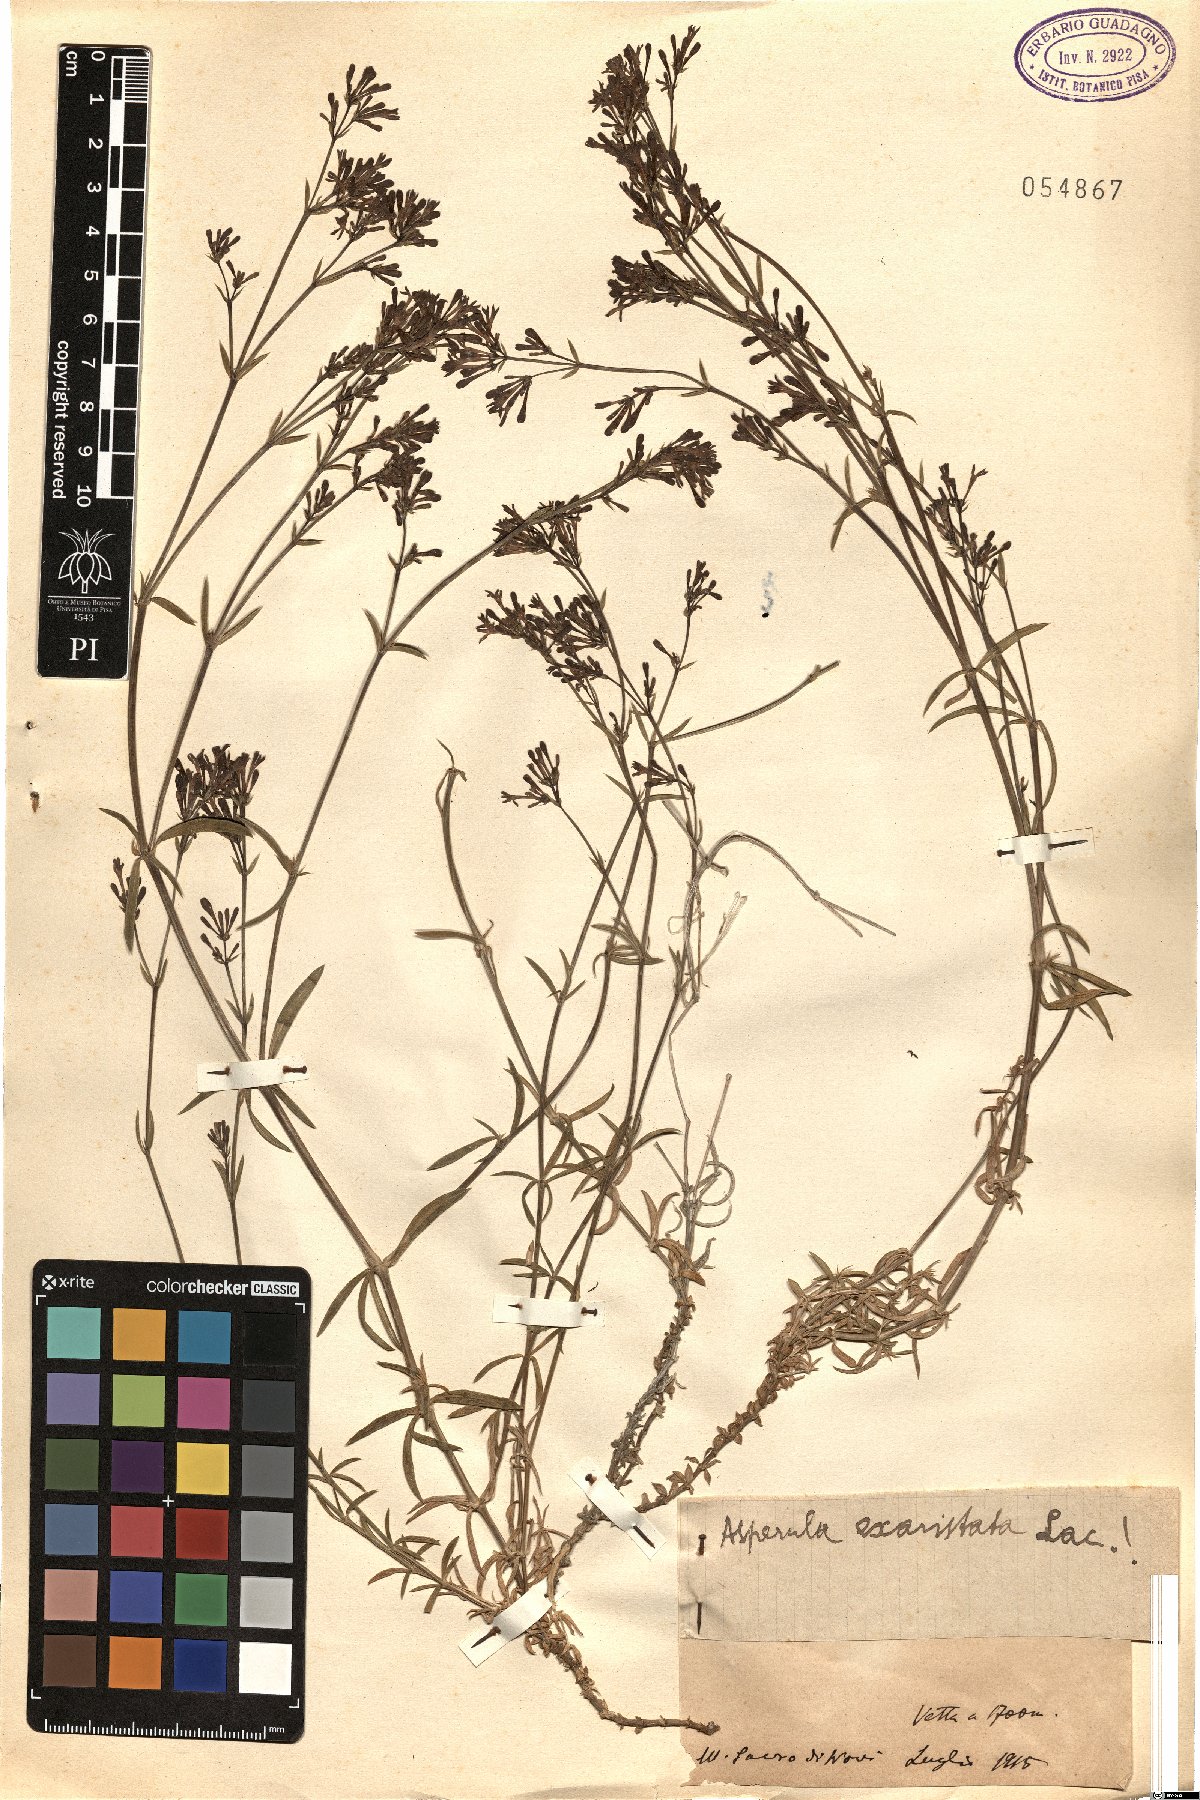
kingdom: Plantae
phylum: Tracheophyta
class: Magnoliopsida
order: Gentianales
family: Rubiaceae
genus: Cynanchica
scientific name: Cynanchica aristata
